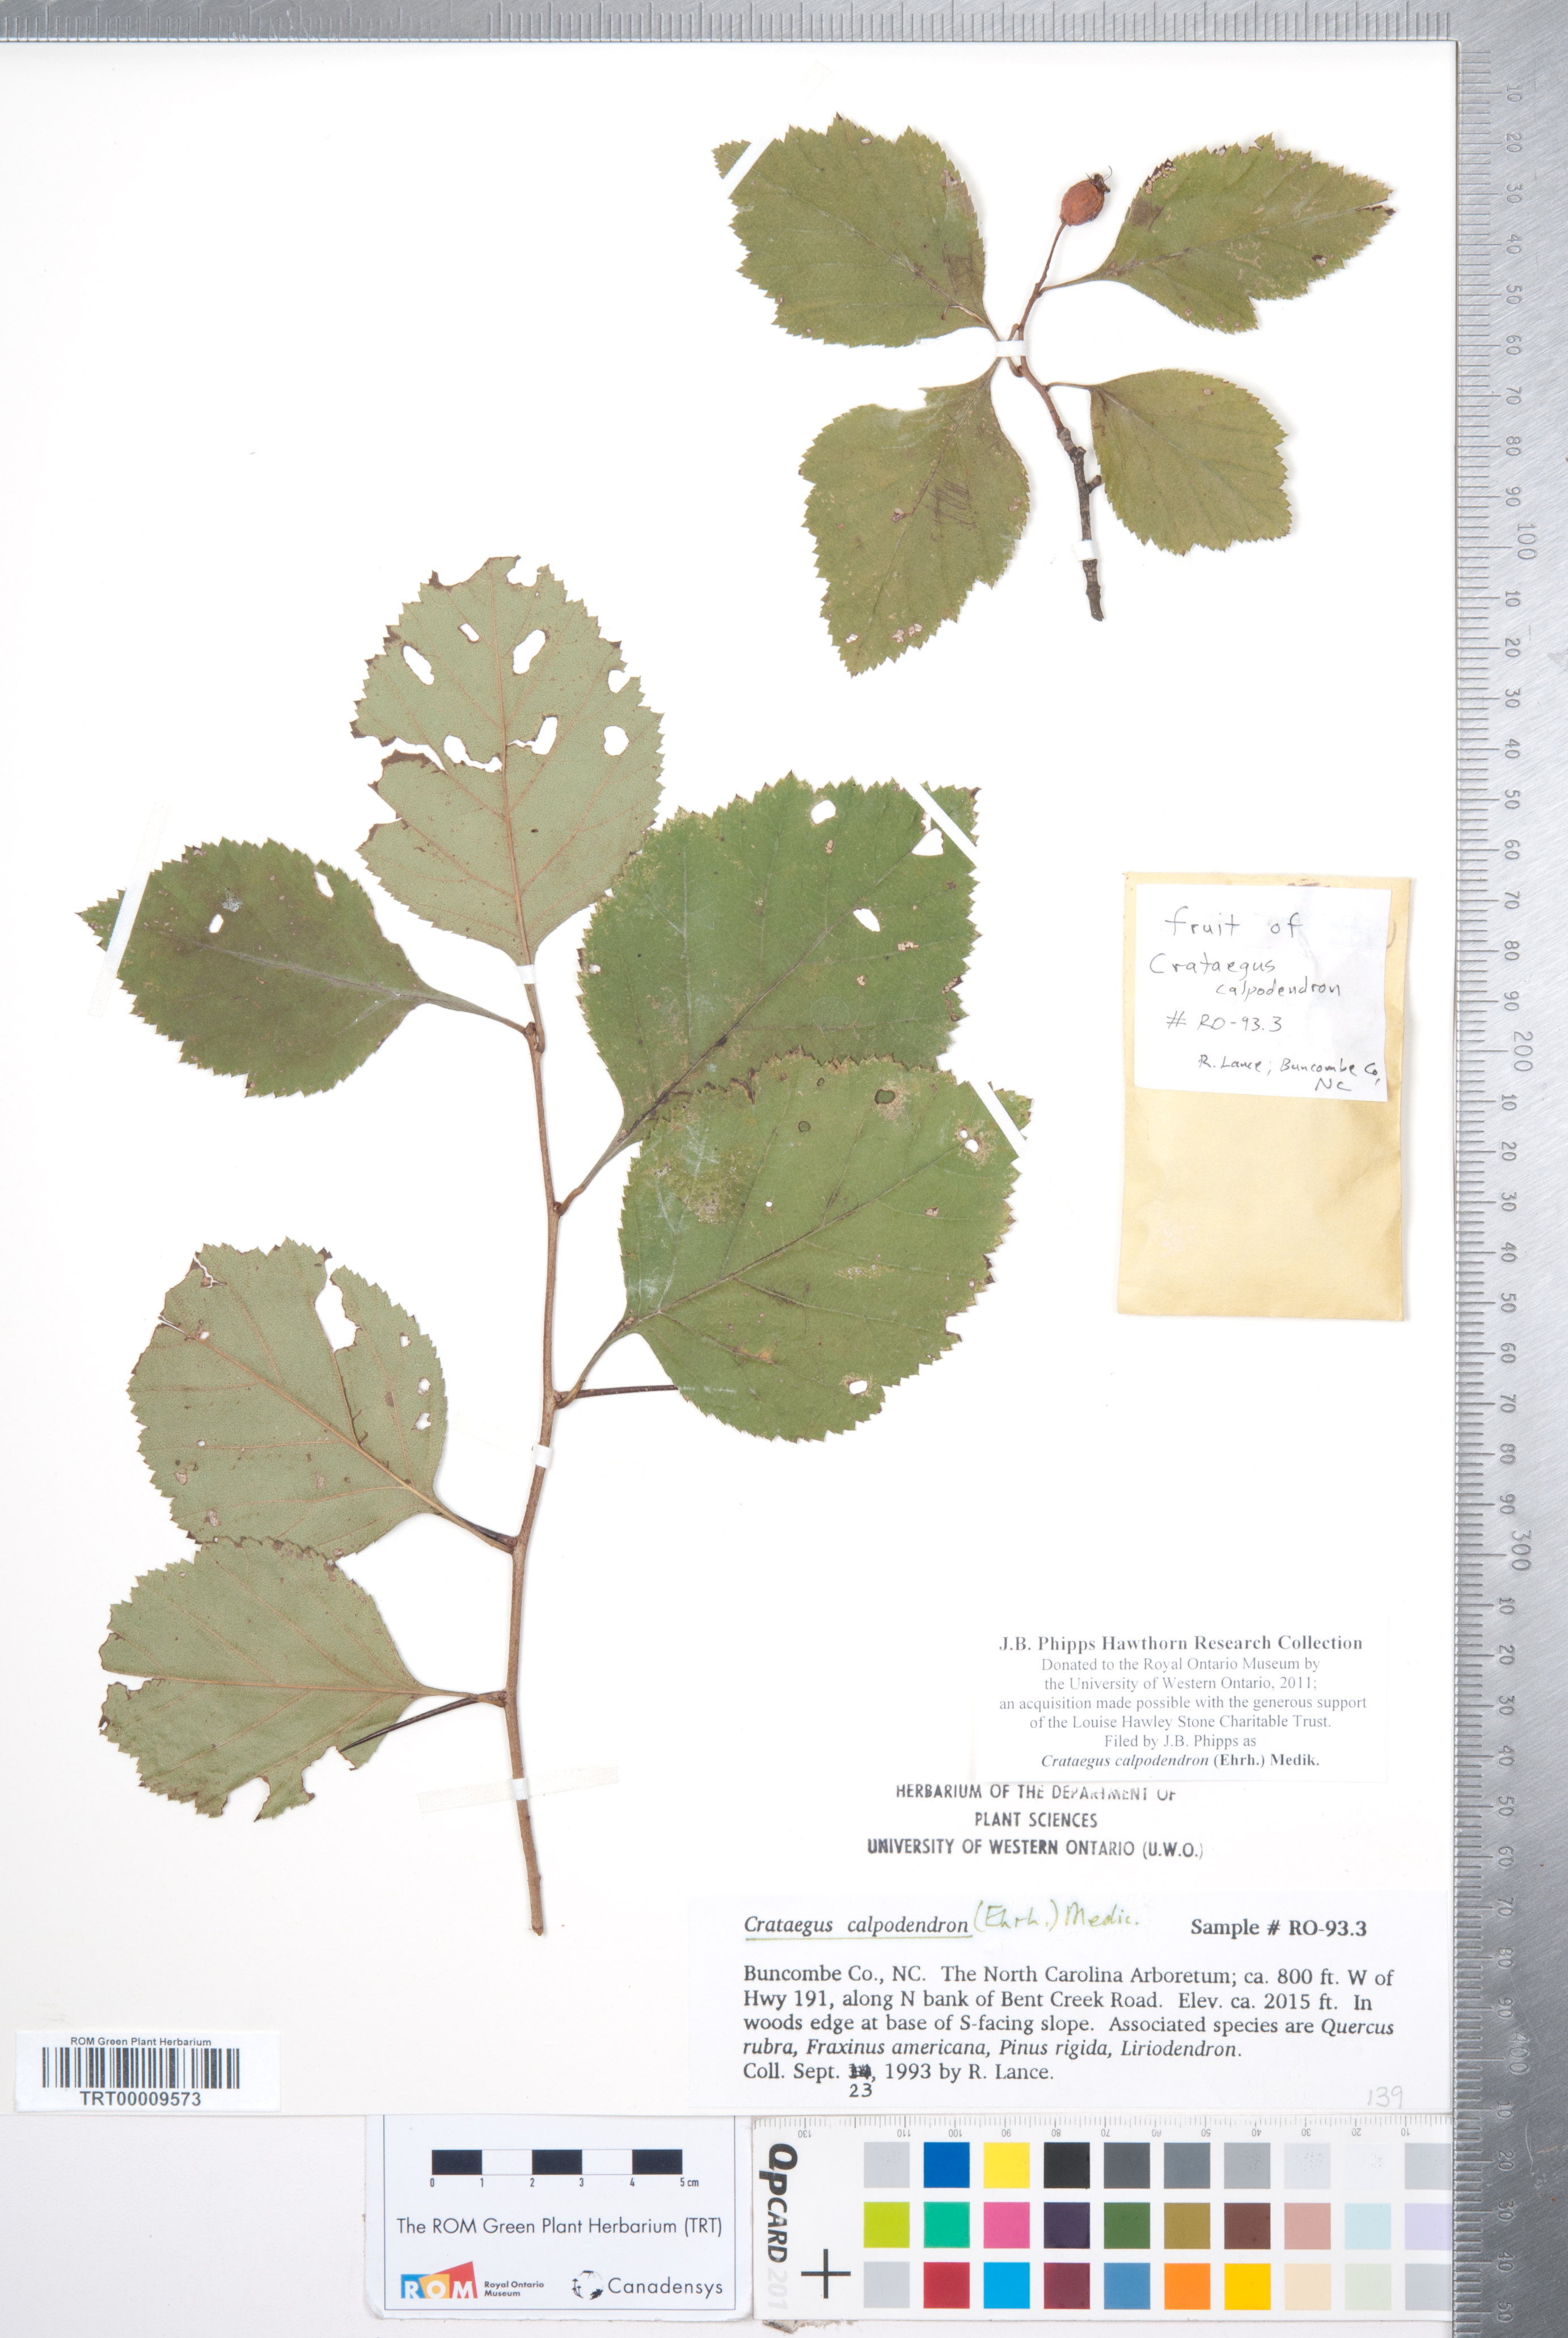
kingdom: Plantae
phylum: Tracheophyta
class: Magnoliopsida
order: Rosales
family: Rosaceae
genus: Crataegus
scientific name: Crataegus calpodendron
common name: Pear hawthorn
